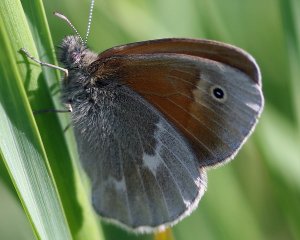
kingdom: Animalia
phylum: Arthropoda
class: Insecta
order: Lepidoptera
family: Nymphalidae
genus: Coenonympha
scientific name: Coenonympha tullia
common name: Large Heath
